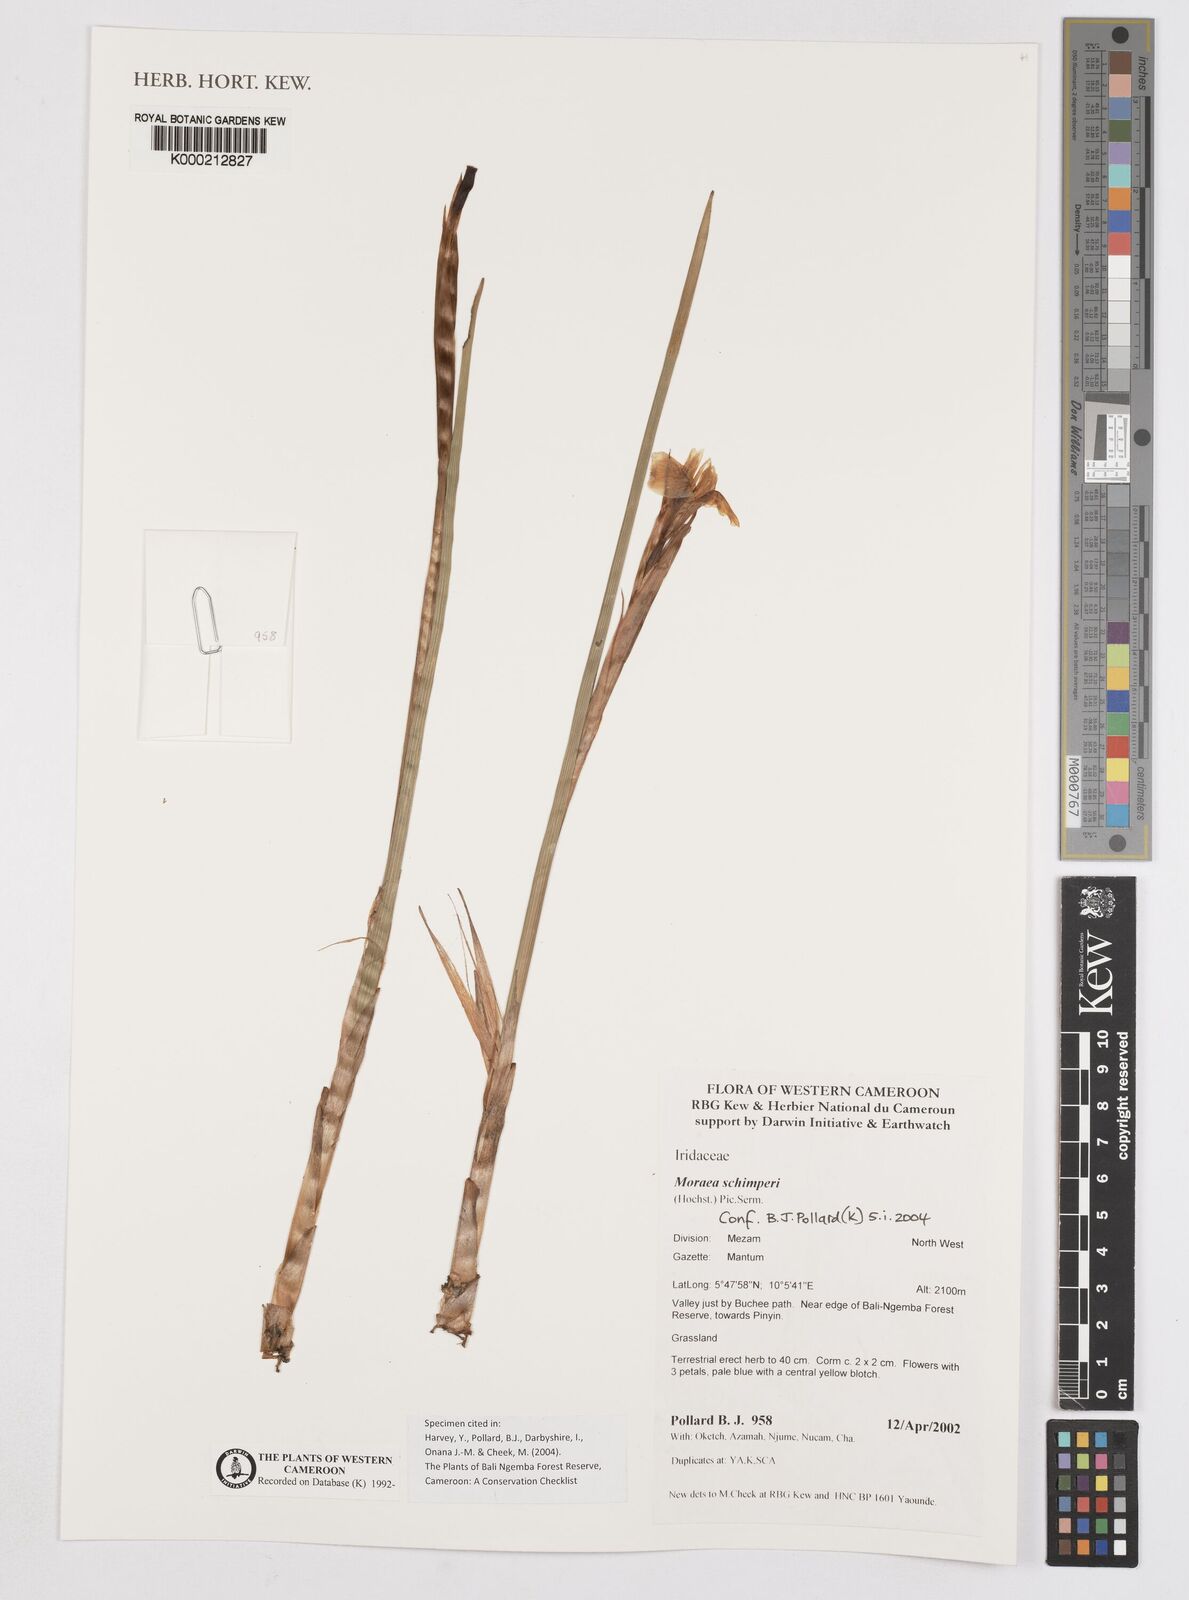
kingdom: Plantae
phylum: Tracheophyta
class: Liliopsida
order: Asparagales
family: Iridaceae
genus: Moraea
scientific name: Moraea schimperi
